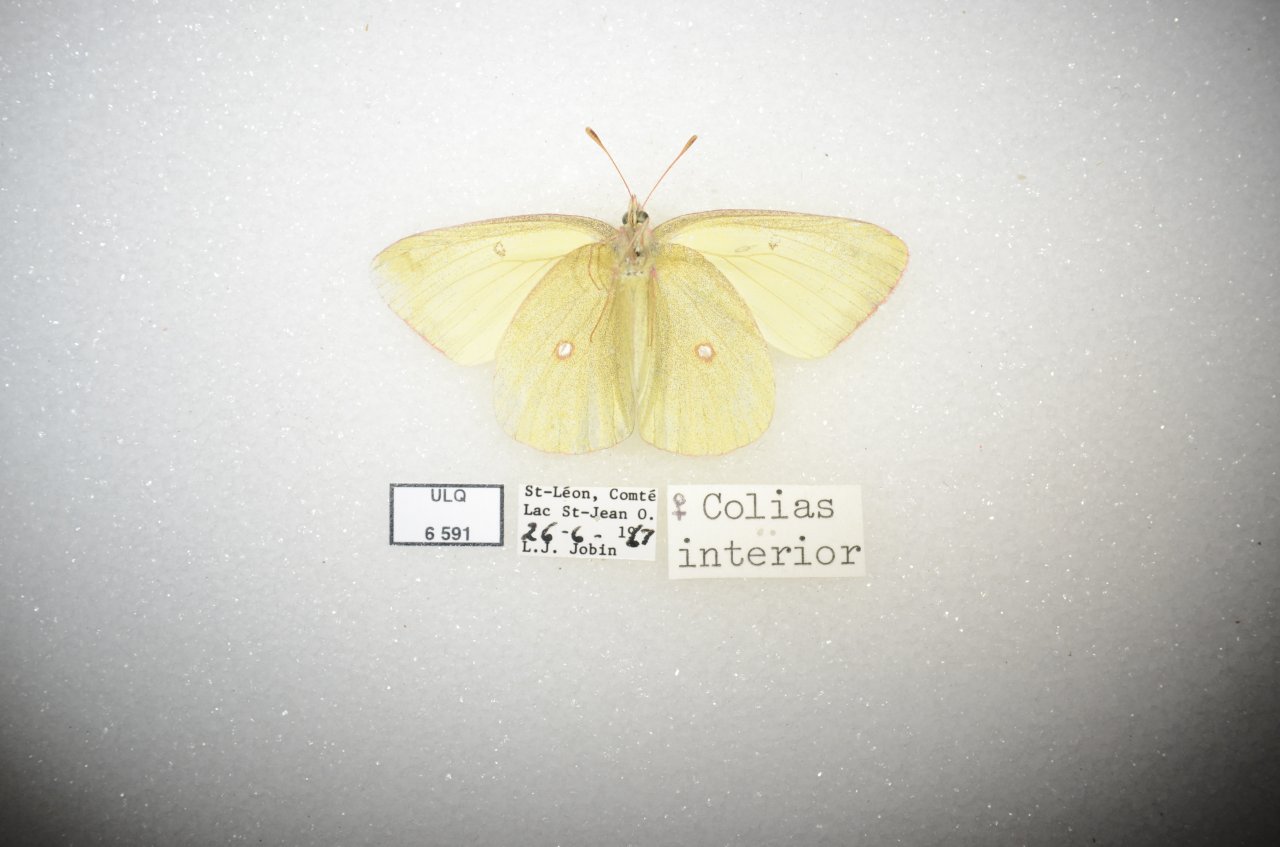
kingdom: Animalia
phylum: Arthropoda
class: Insecta
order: Lepidoptera
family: Pieridae
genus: Colias
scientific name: Colias interior
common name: Pink-edged Sulphur
